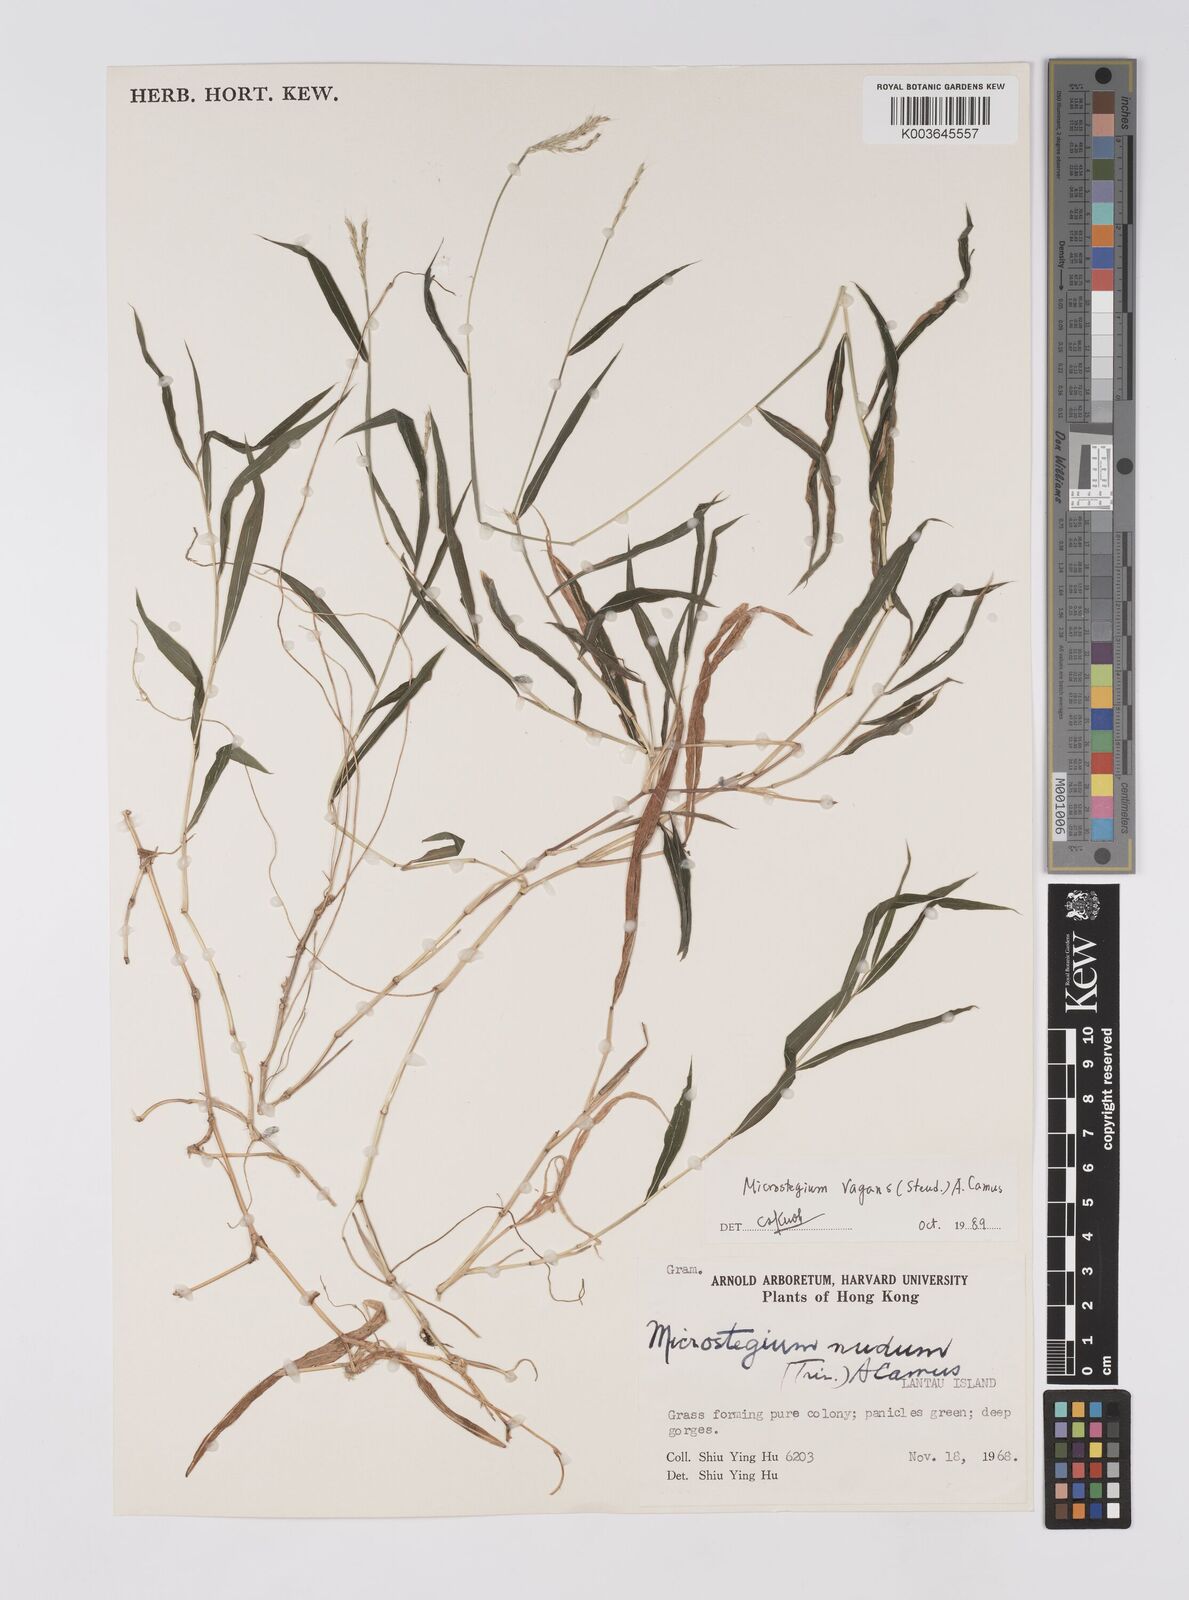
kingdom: Plantae
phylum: Tracheophyta
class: Liliopsida
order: Poales
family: Poaceae
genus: Microstegium
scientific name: Microstegium fasciculatum
